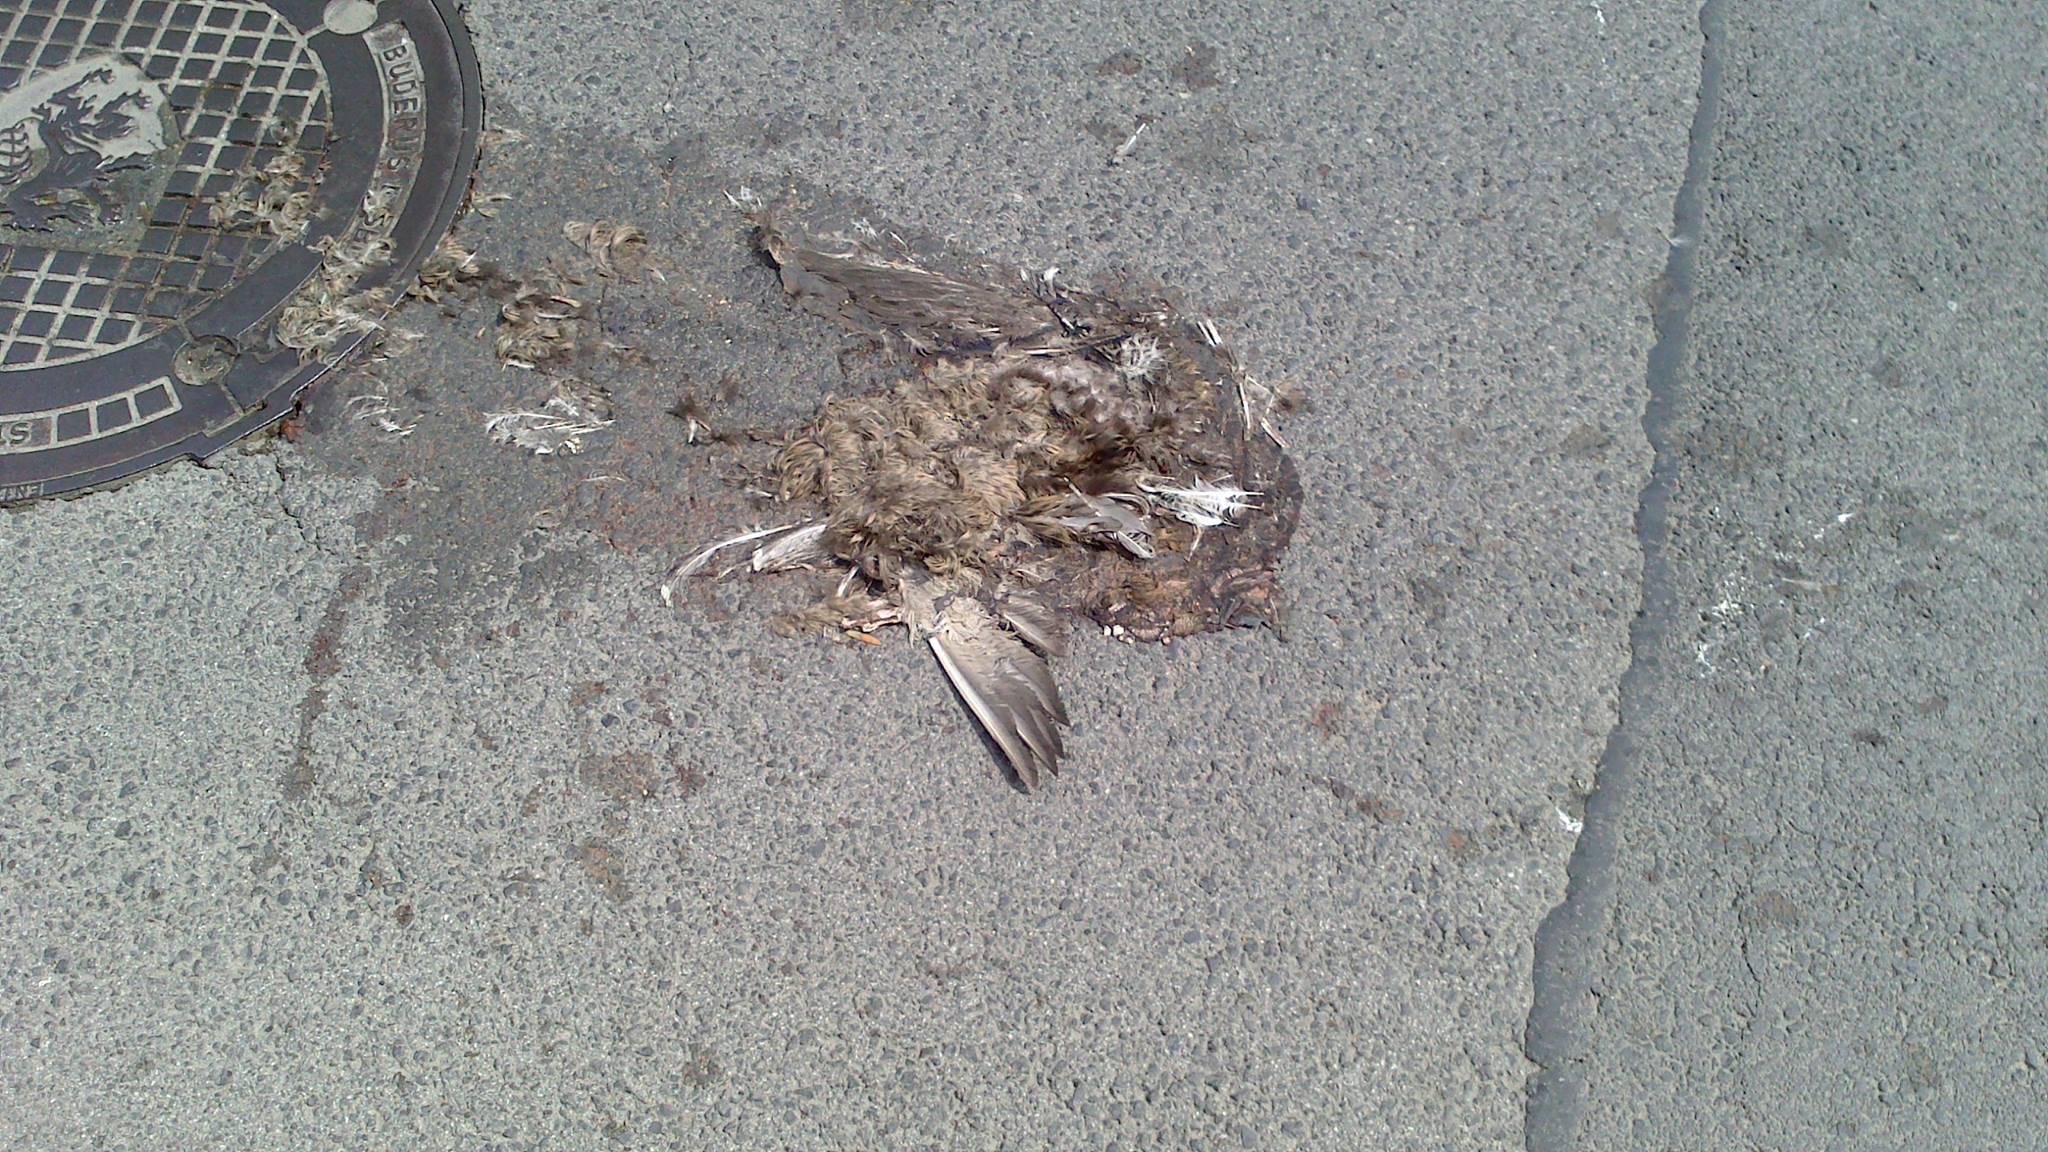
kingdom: Animalia
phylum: Chordata
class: Aves
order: Columbiformes
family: Columbidae
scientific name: Columbidae
